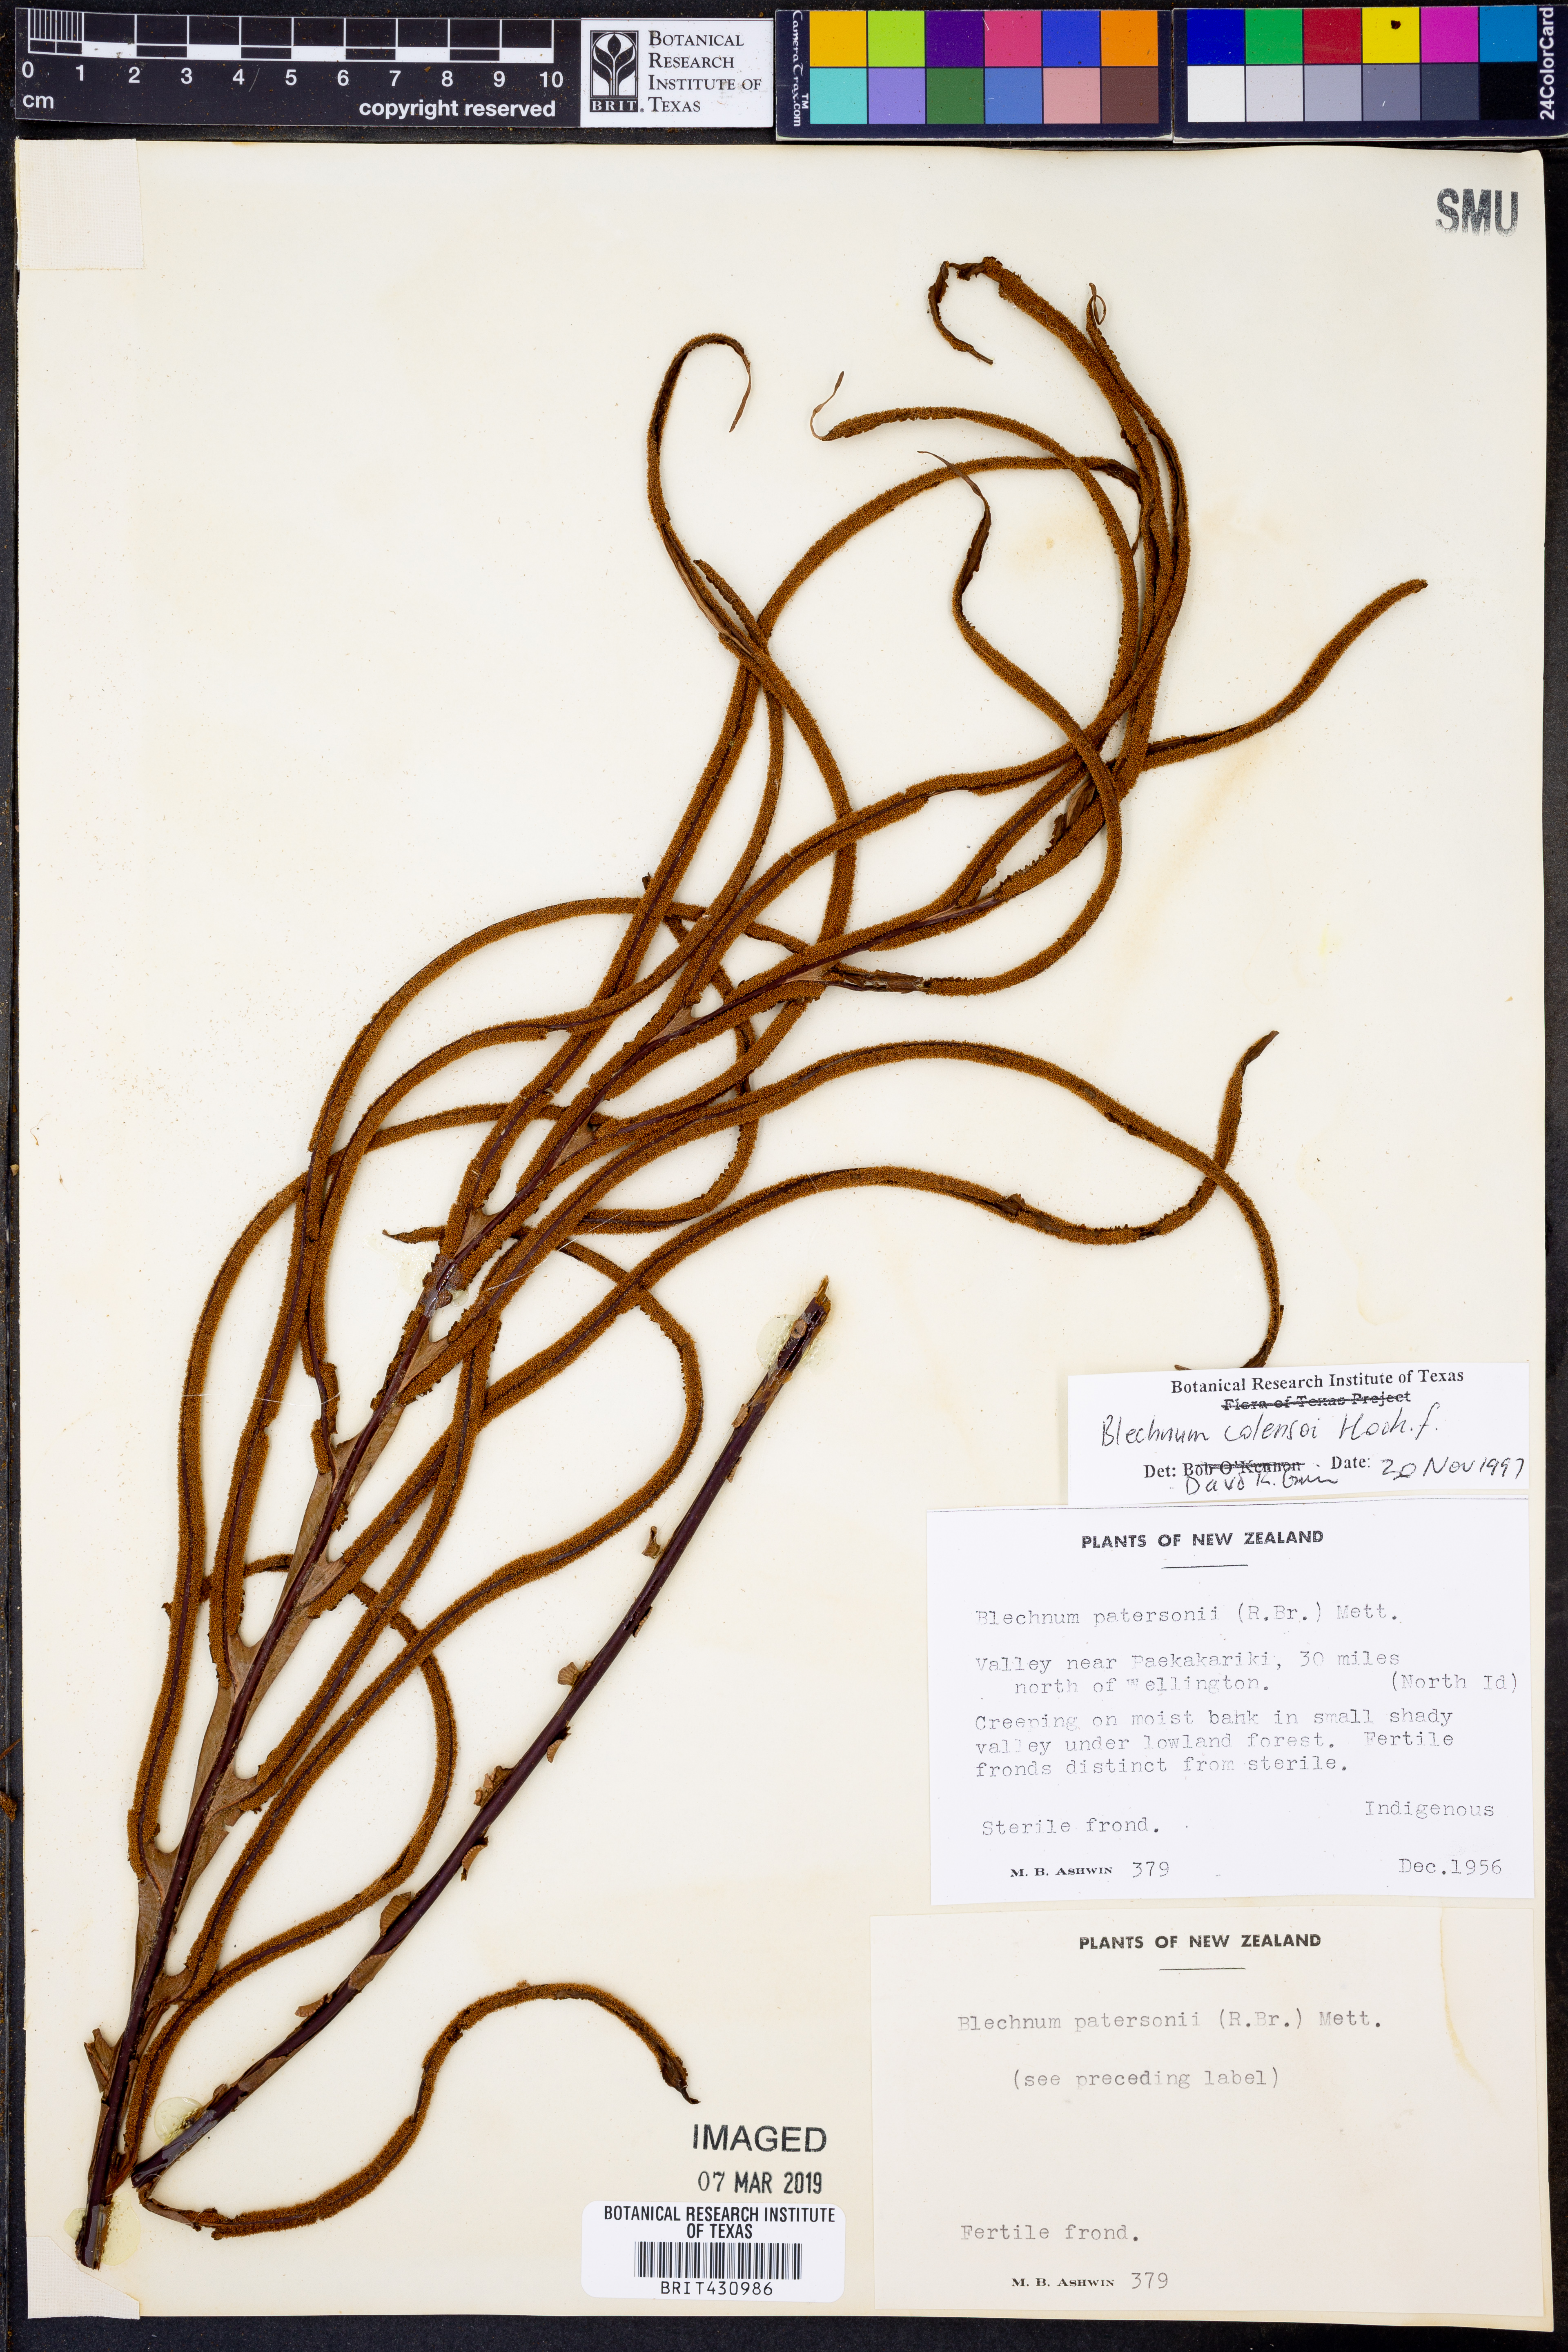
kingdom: Plantae
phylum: Tracheophyta
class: Polypodiopsida
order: Polypodiales
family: Blechnaceae
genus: Austroblechnum
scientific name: Austroblechnum colensoi
